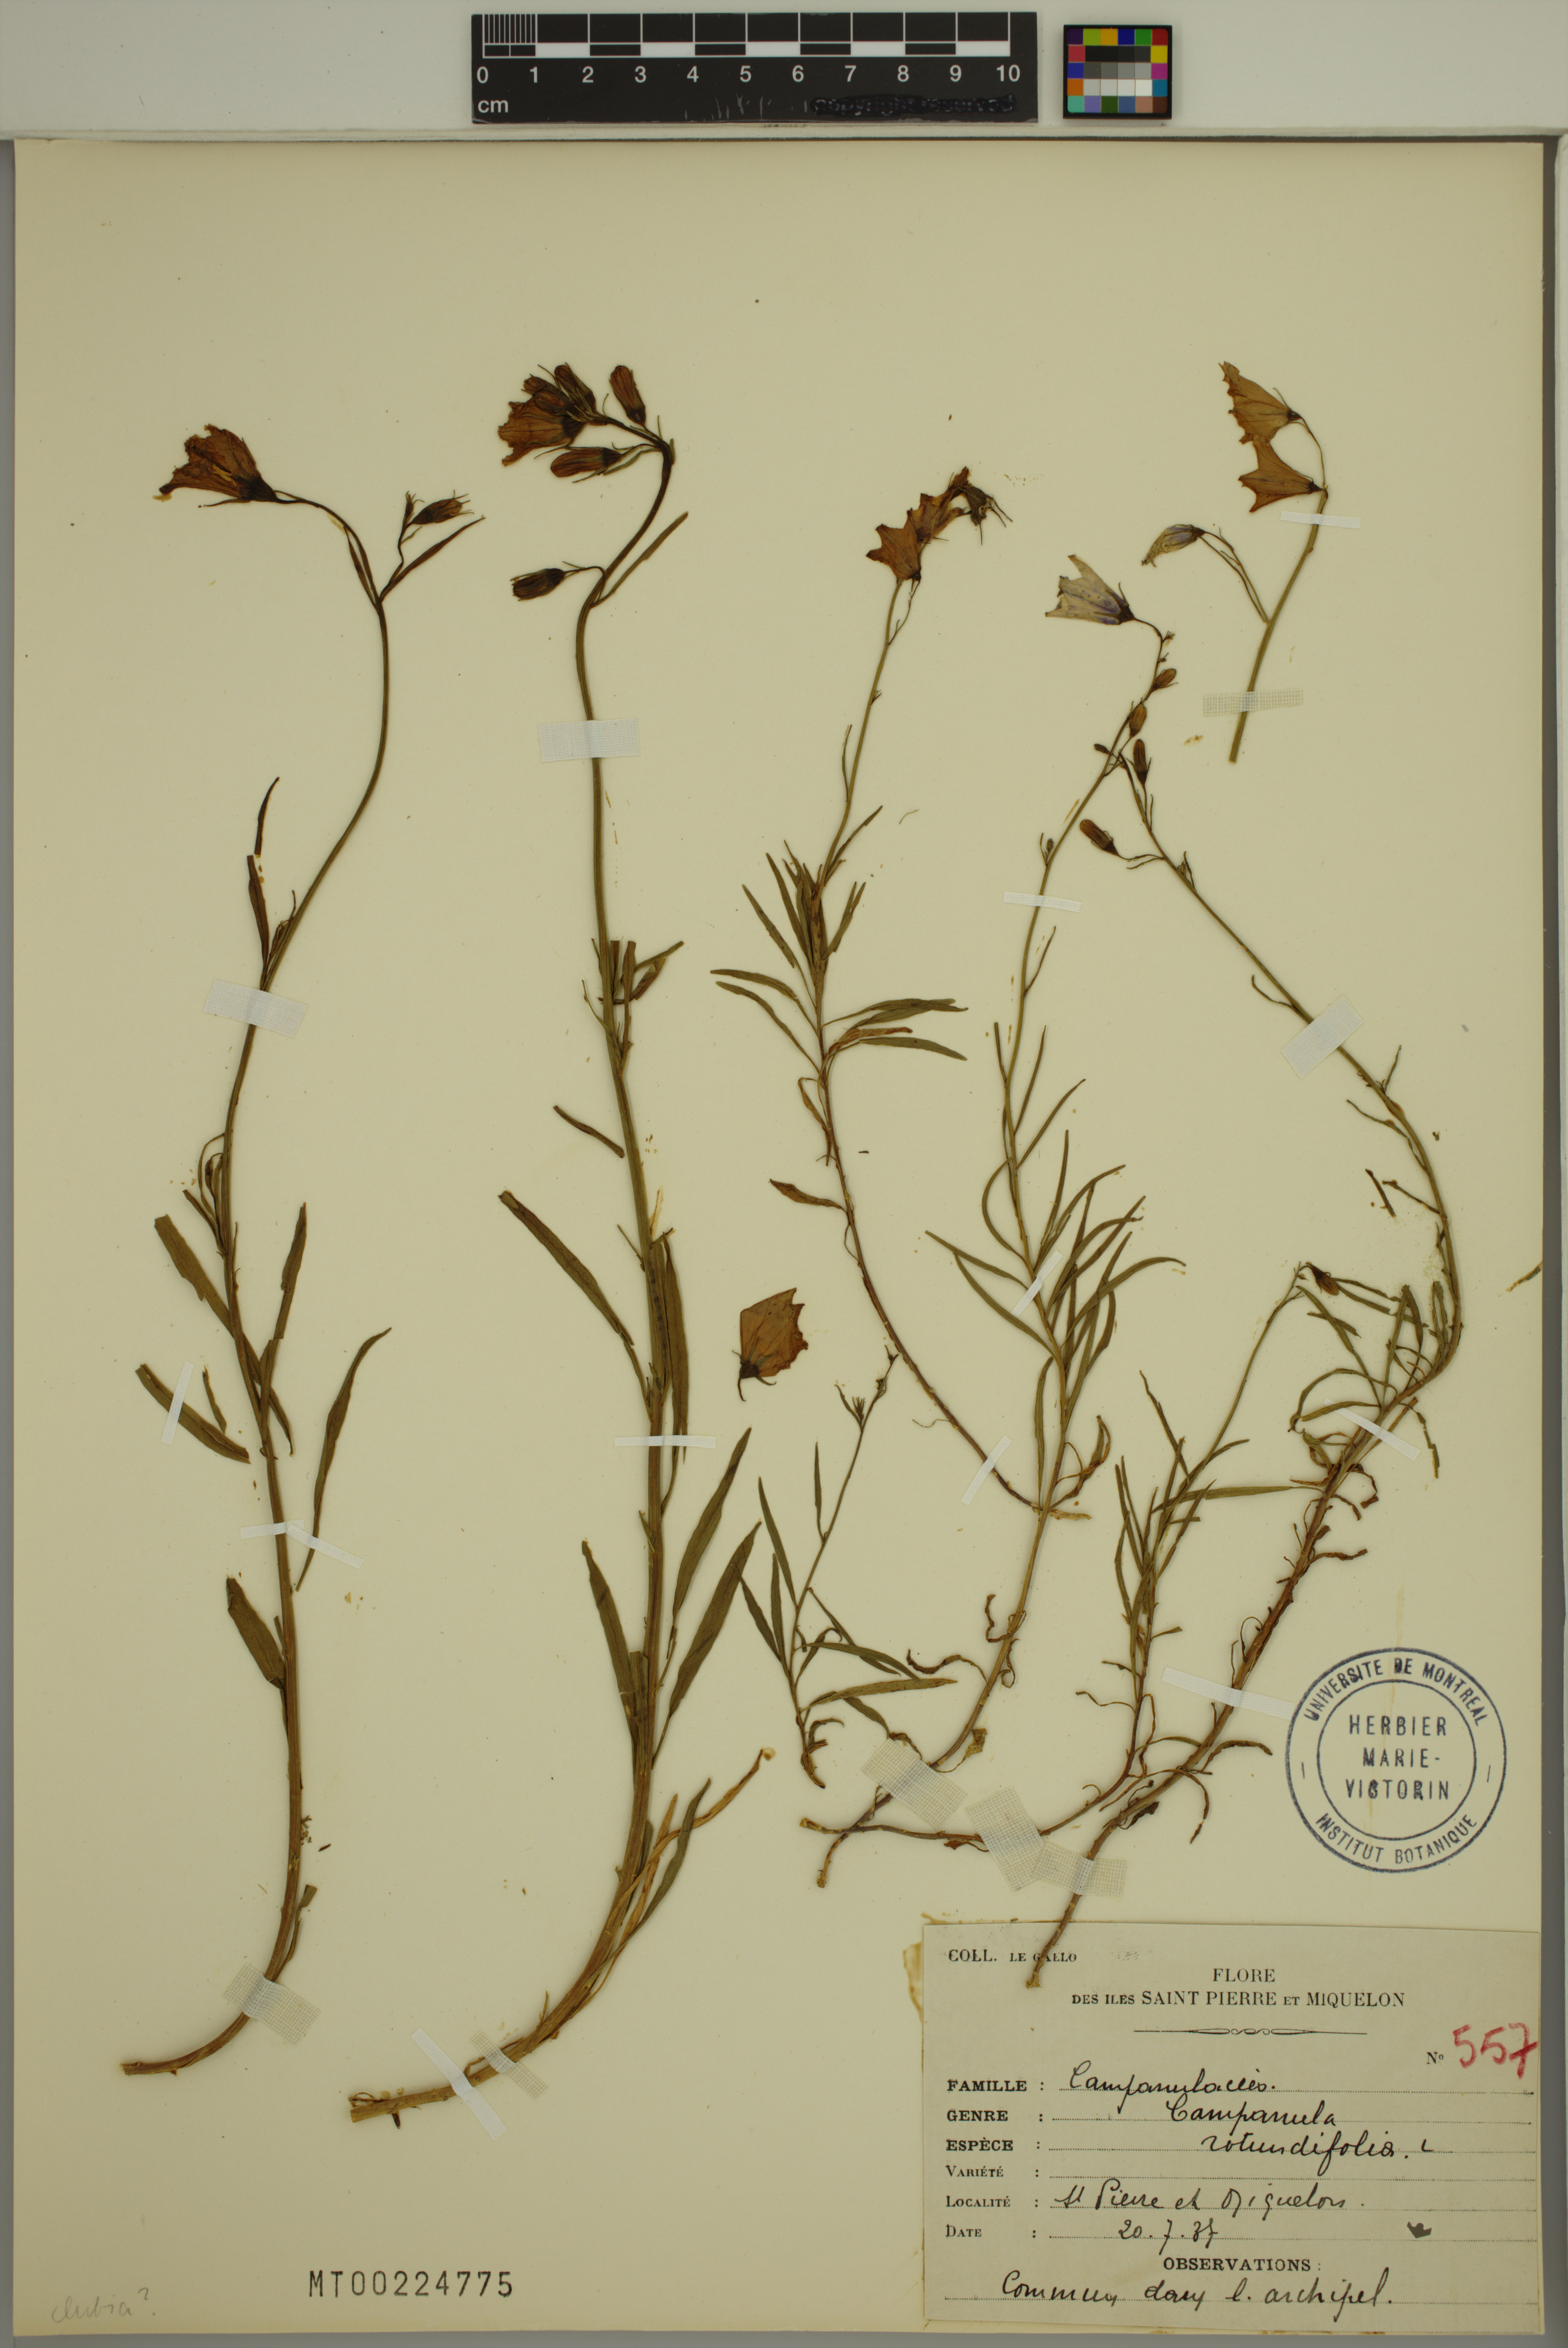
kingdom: Plantae
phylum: Tracheophyta
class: Magnoliopsida
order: Asterales
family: Campanulaceae
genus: Campanula
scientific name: Campanula rotundifolia
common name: Harebell
